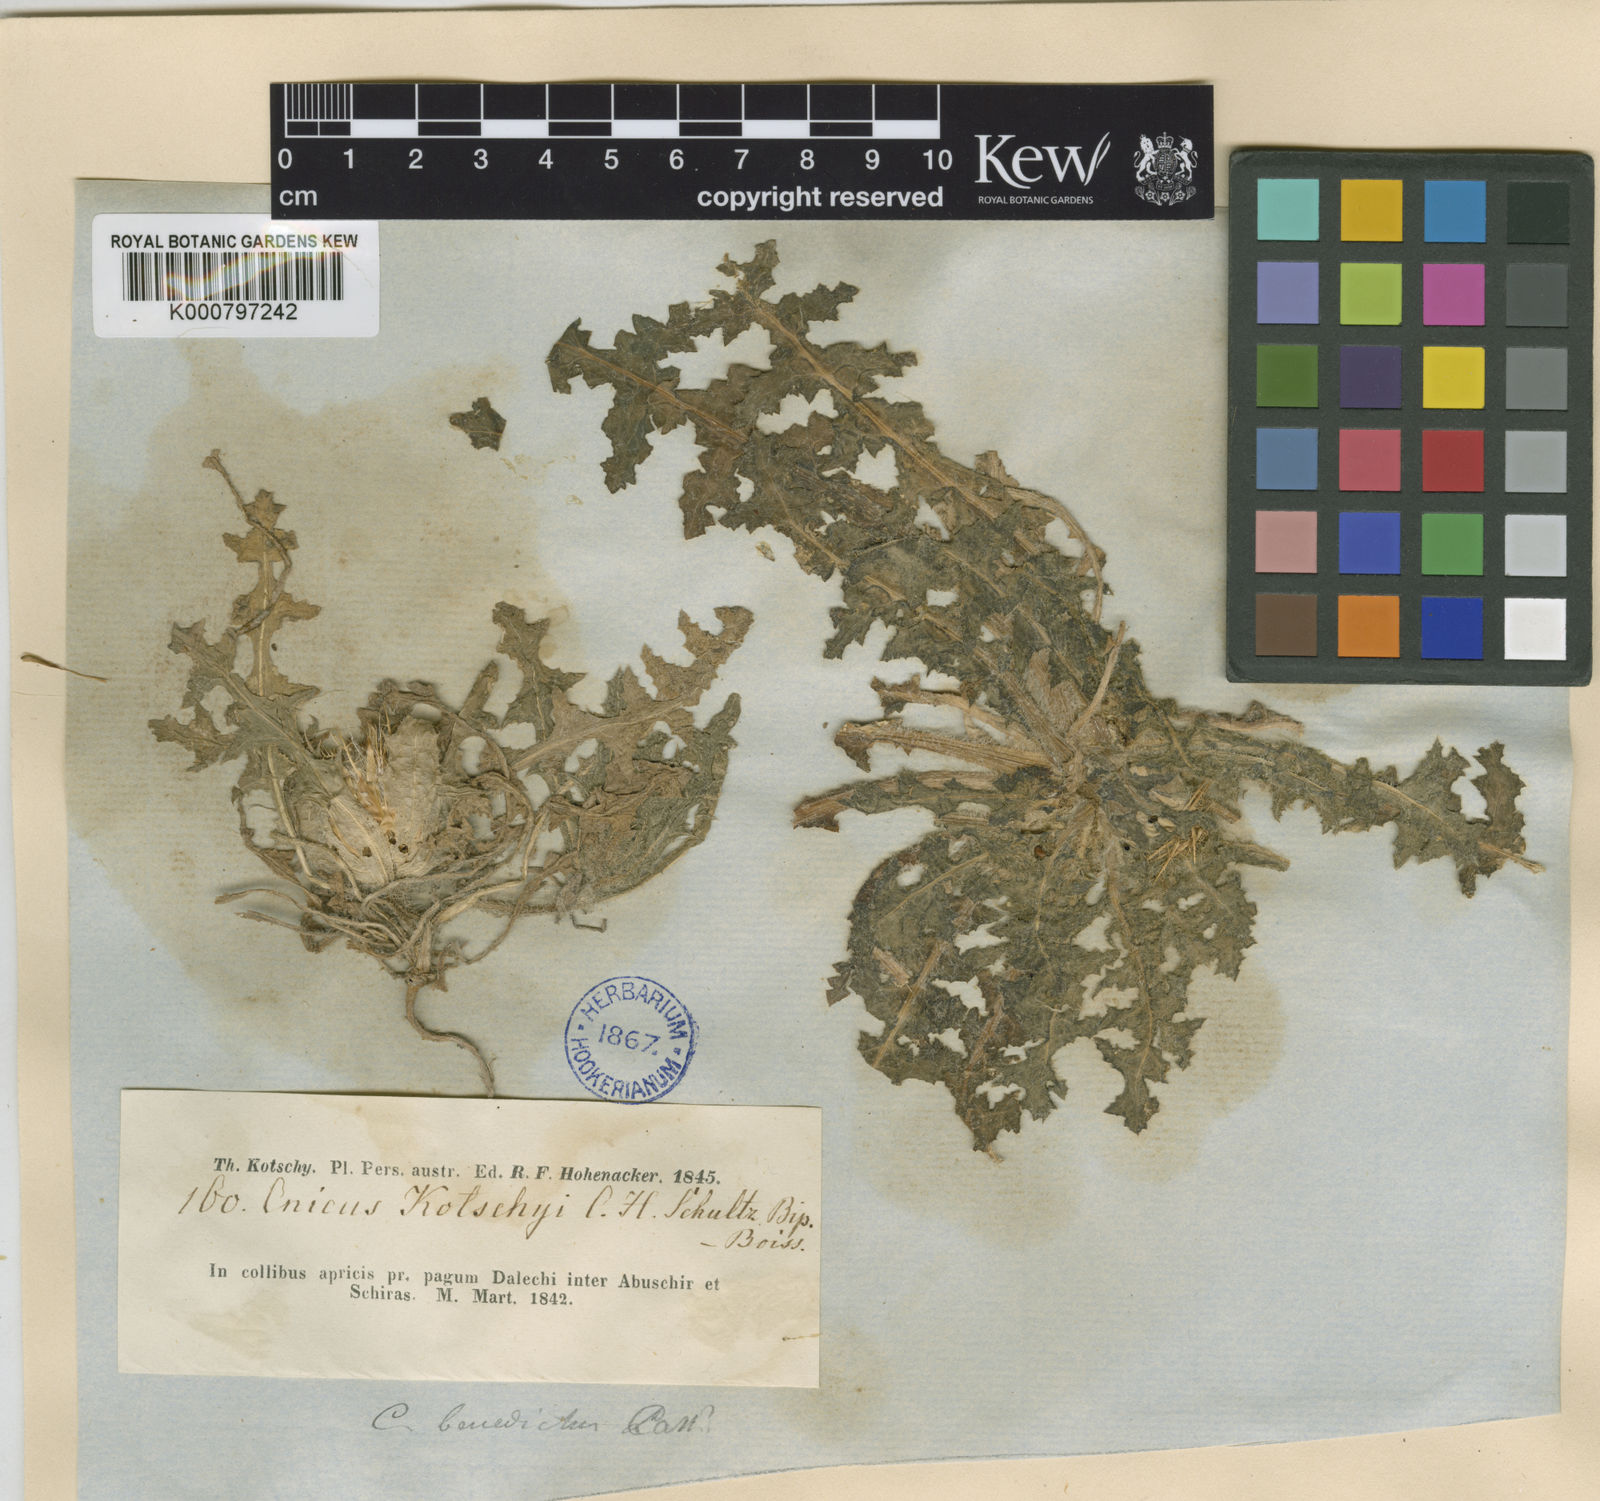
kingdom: Plantae
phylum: Tracheophyta
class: Magnoliopsida
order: Asterales
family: Asteraceae
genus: Centaurea
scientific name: Centaurea benedicta
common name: Blessed thistle
